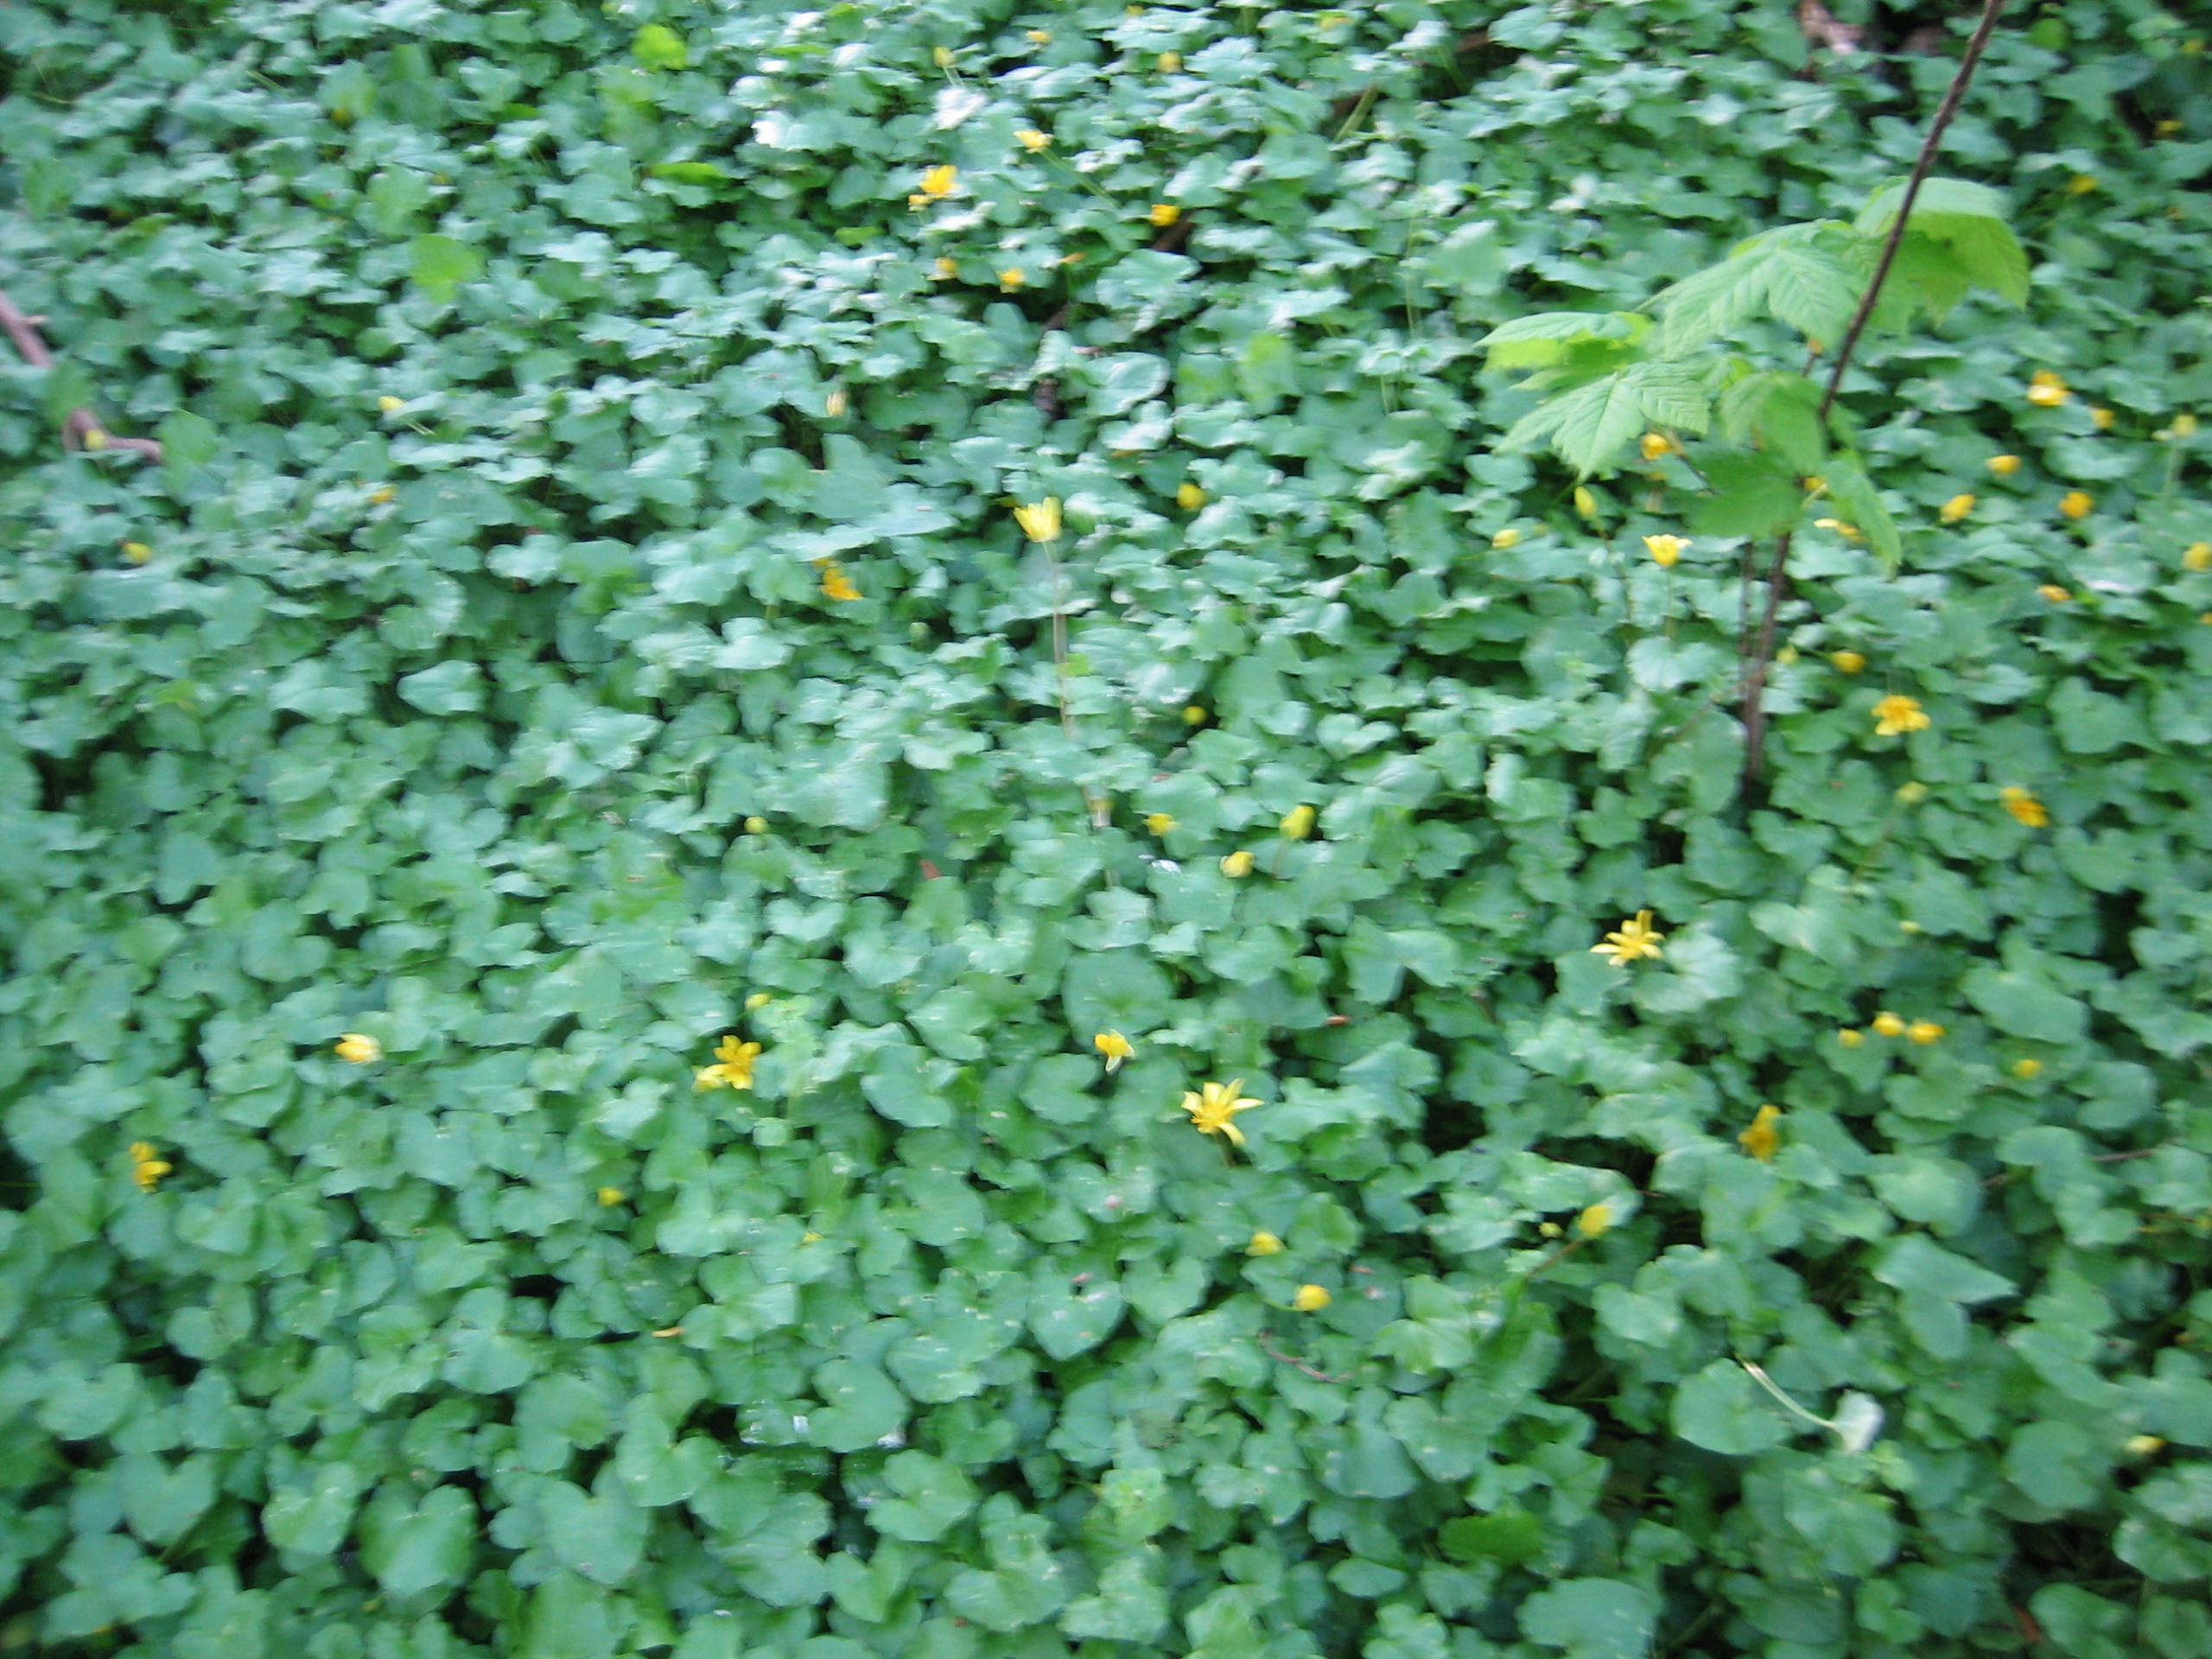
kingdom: Plantae
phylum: Tracheophyta
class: Magnoliopsida
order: Ranunculales
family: Ranunculaceae
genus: Ficaria
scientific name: Ficaria verna
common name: Vorterod
